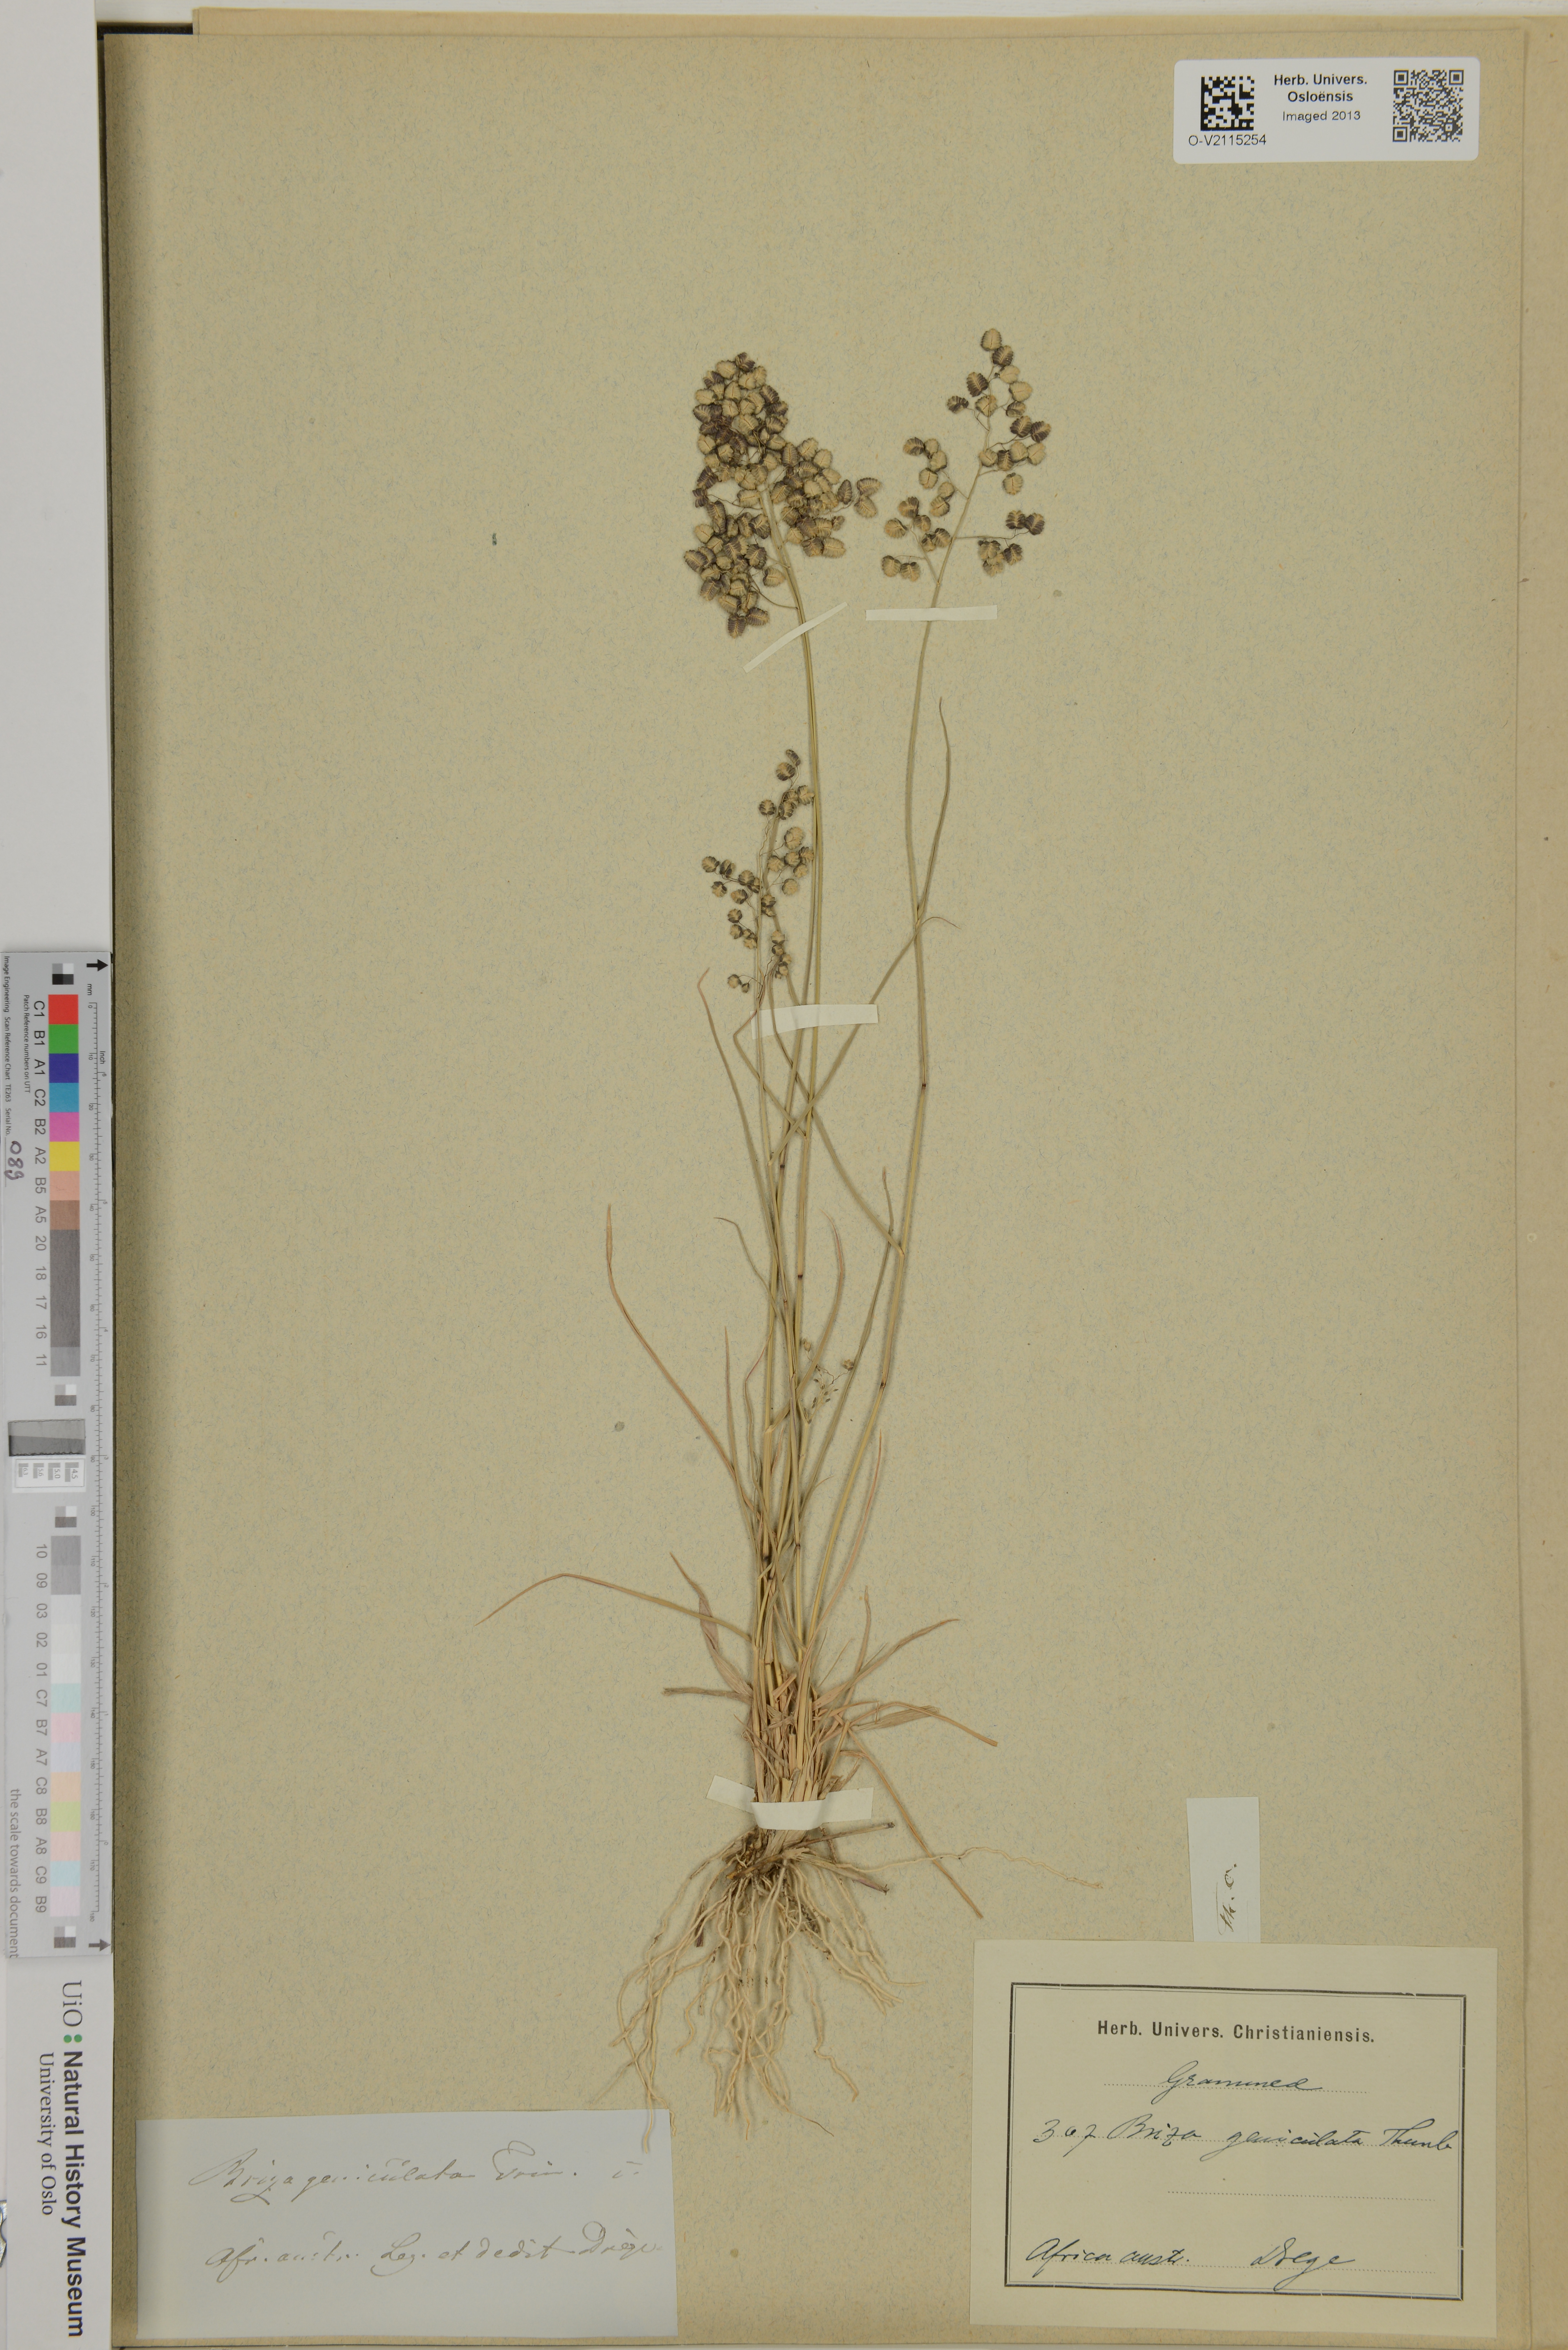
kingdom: Plantae
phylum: Tracheophyta
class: Liliopsida
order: Poales
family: Poaceae
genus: Eragrostis
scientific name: Eragrostis obtusa
